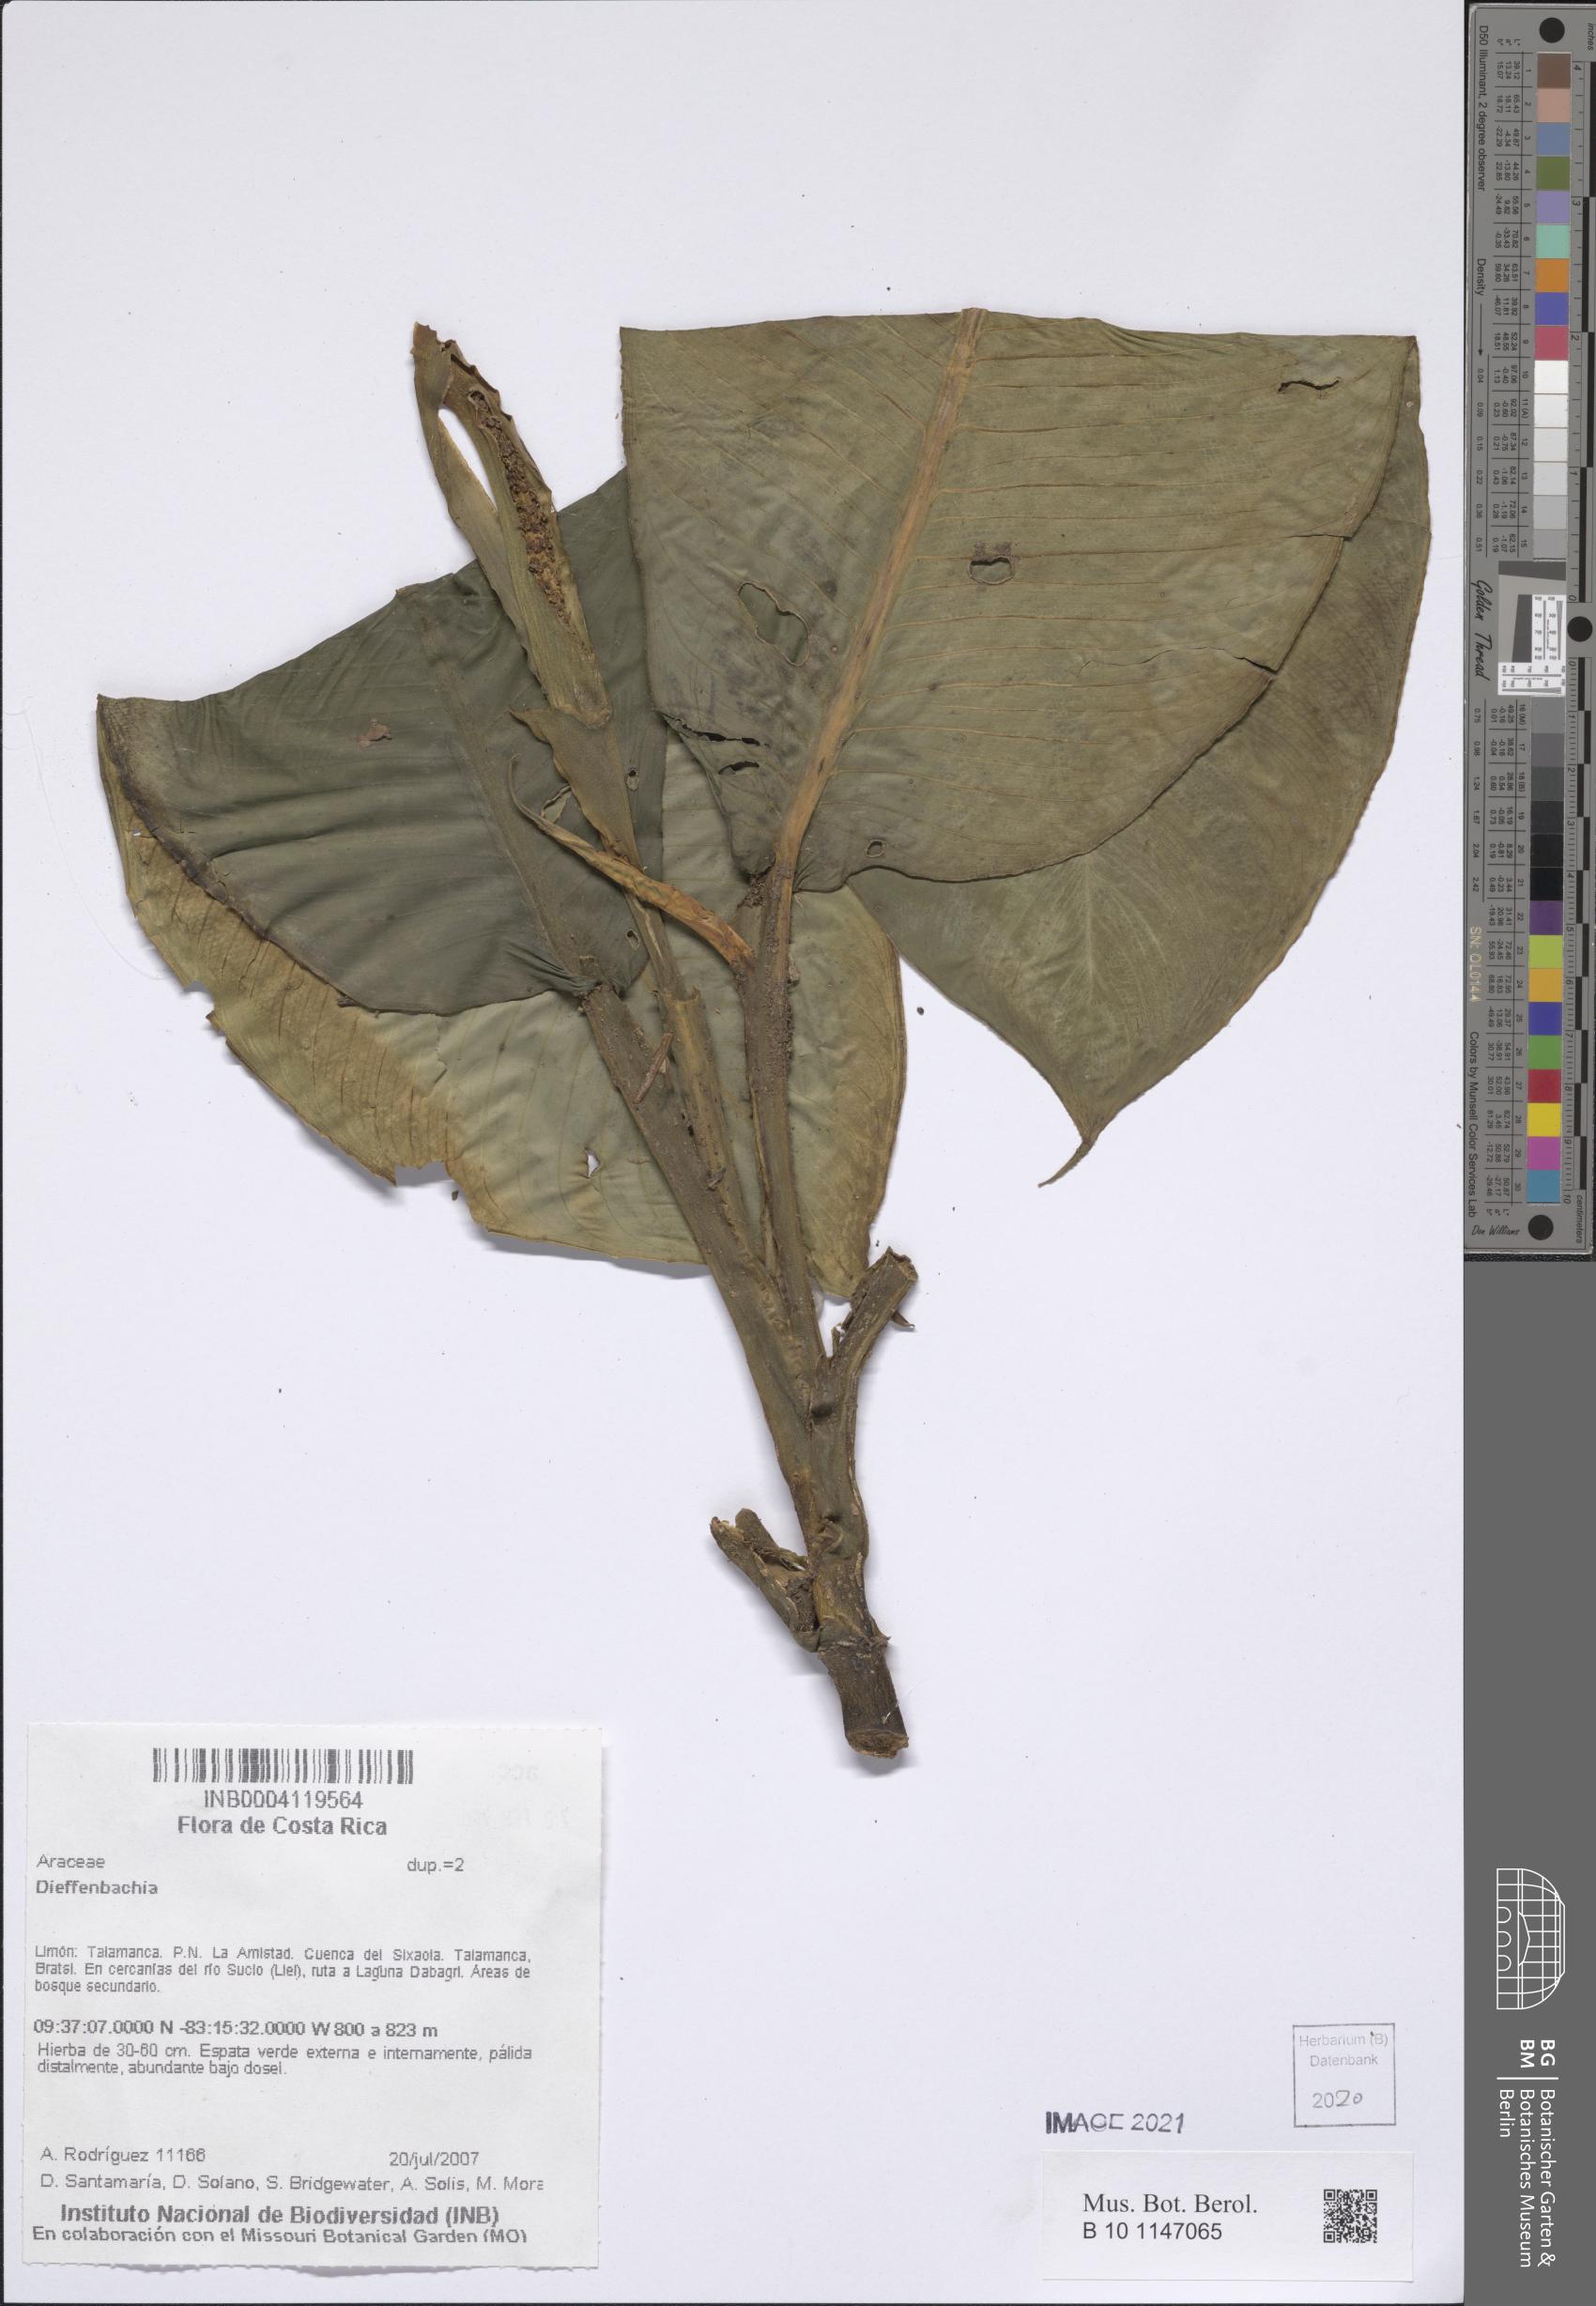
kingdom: Plantae
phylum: Tracheophyta
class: Liliopsida
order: Alismatales
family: Araceae
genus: Dieffenbachia
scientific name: Dieffenbachia
